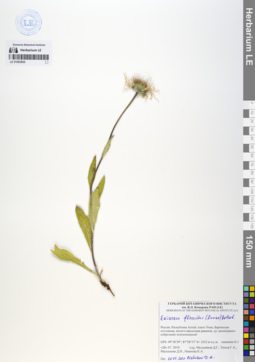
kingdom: Plantae
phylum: Tracheophyta
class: Magnoliopsida
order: Asterales
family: Asteraceae
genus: Tibetiodes
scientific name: Tibetiodes flaccida
